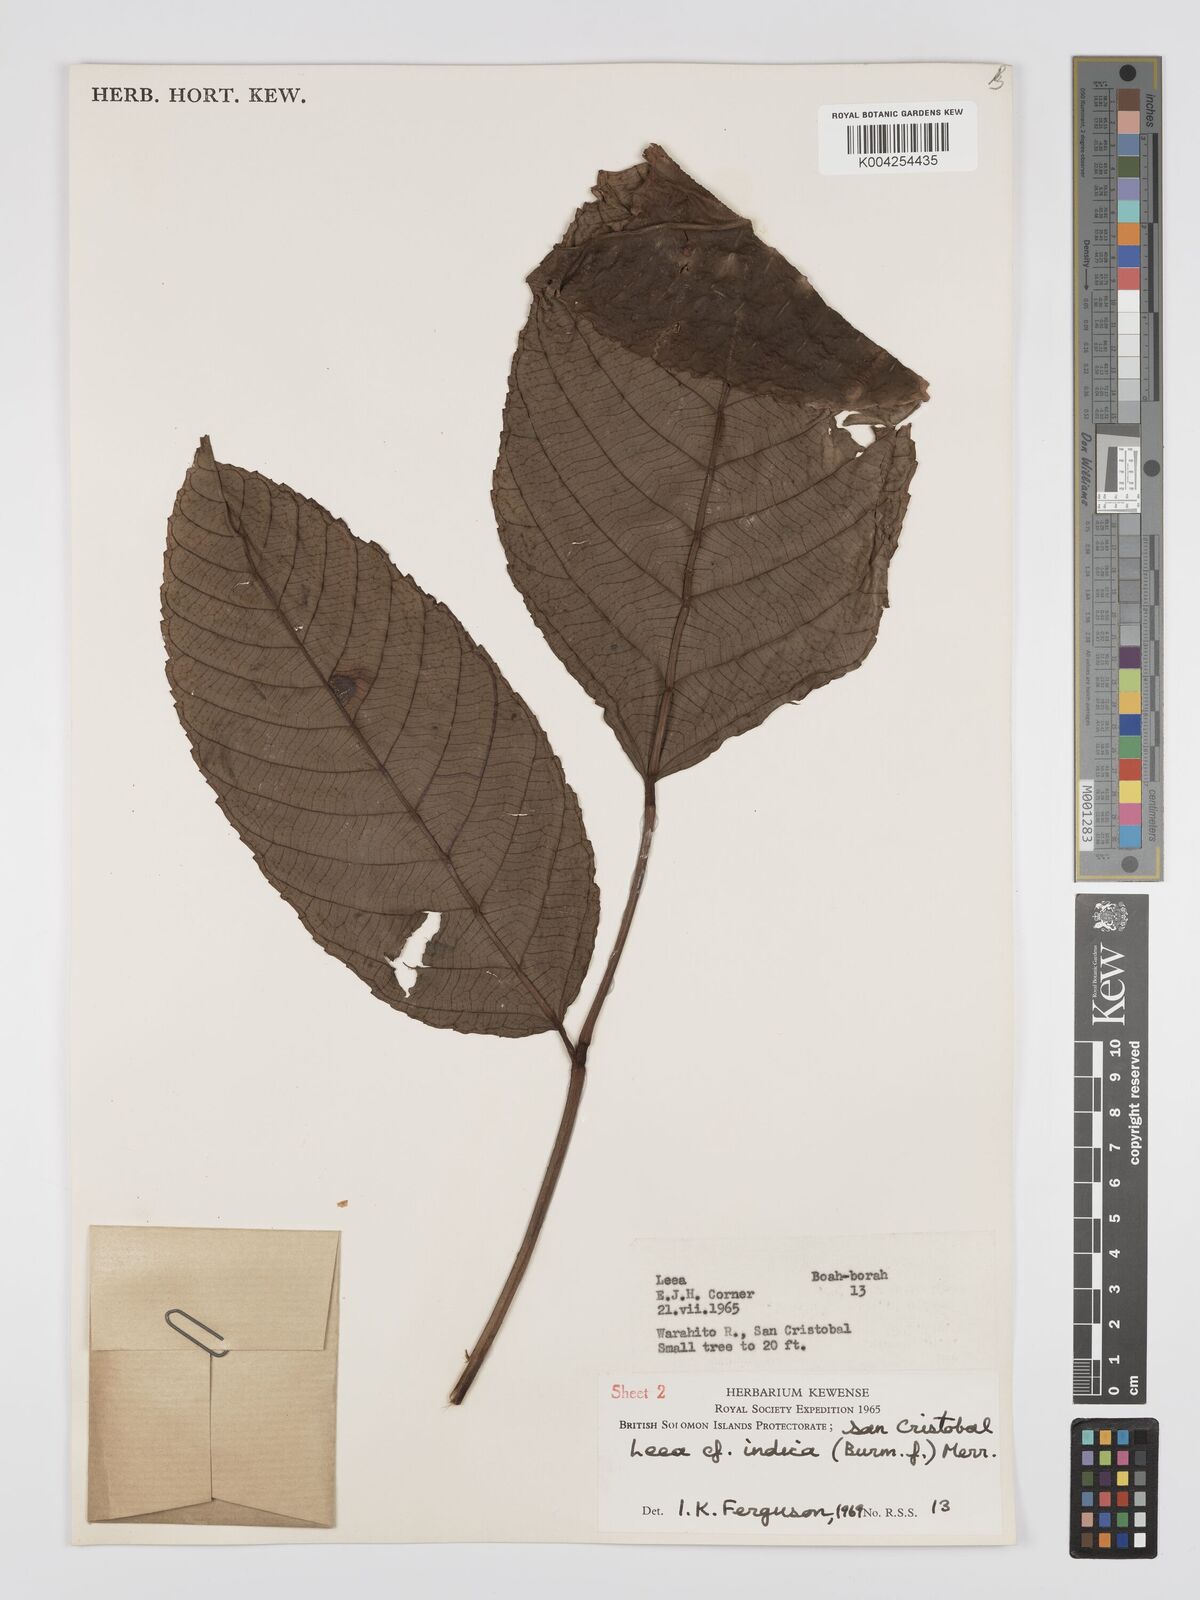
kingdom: Plantae
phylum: Tracheophyta
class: Magnoliopsida
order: Vitales
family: Vitaceae
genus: Leea
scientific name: Leea tetramera
